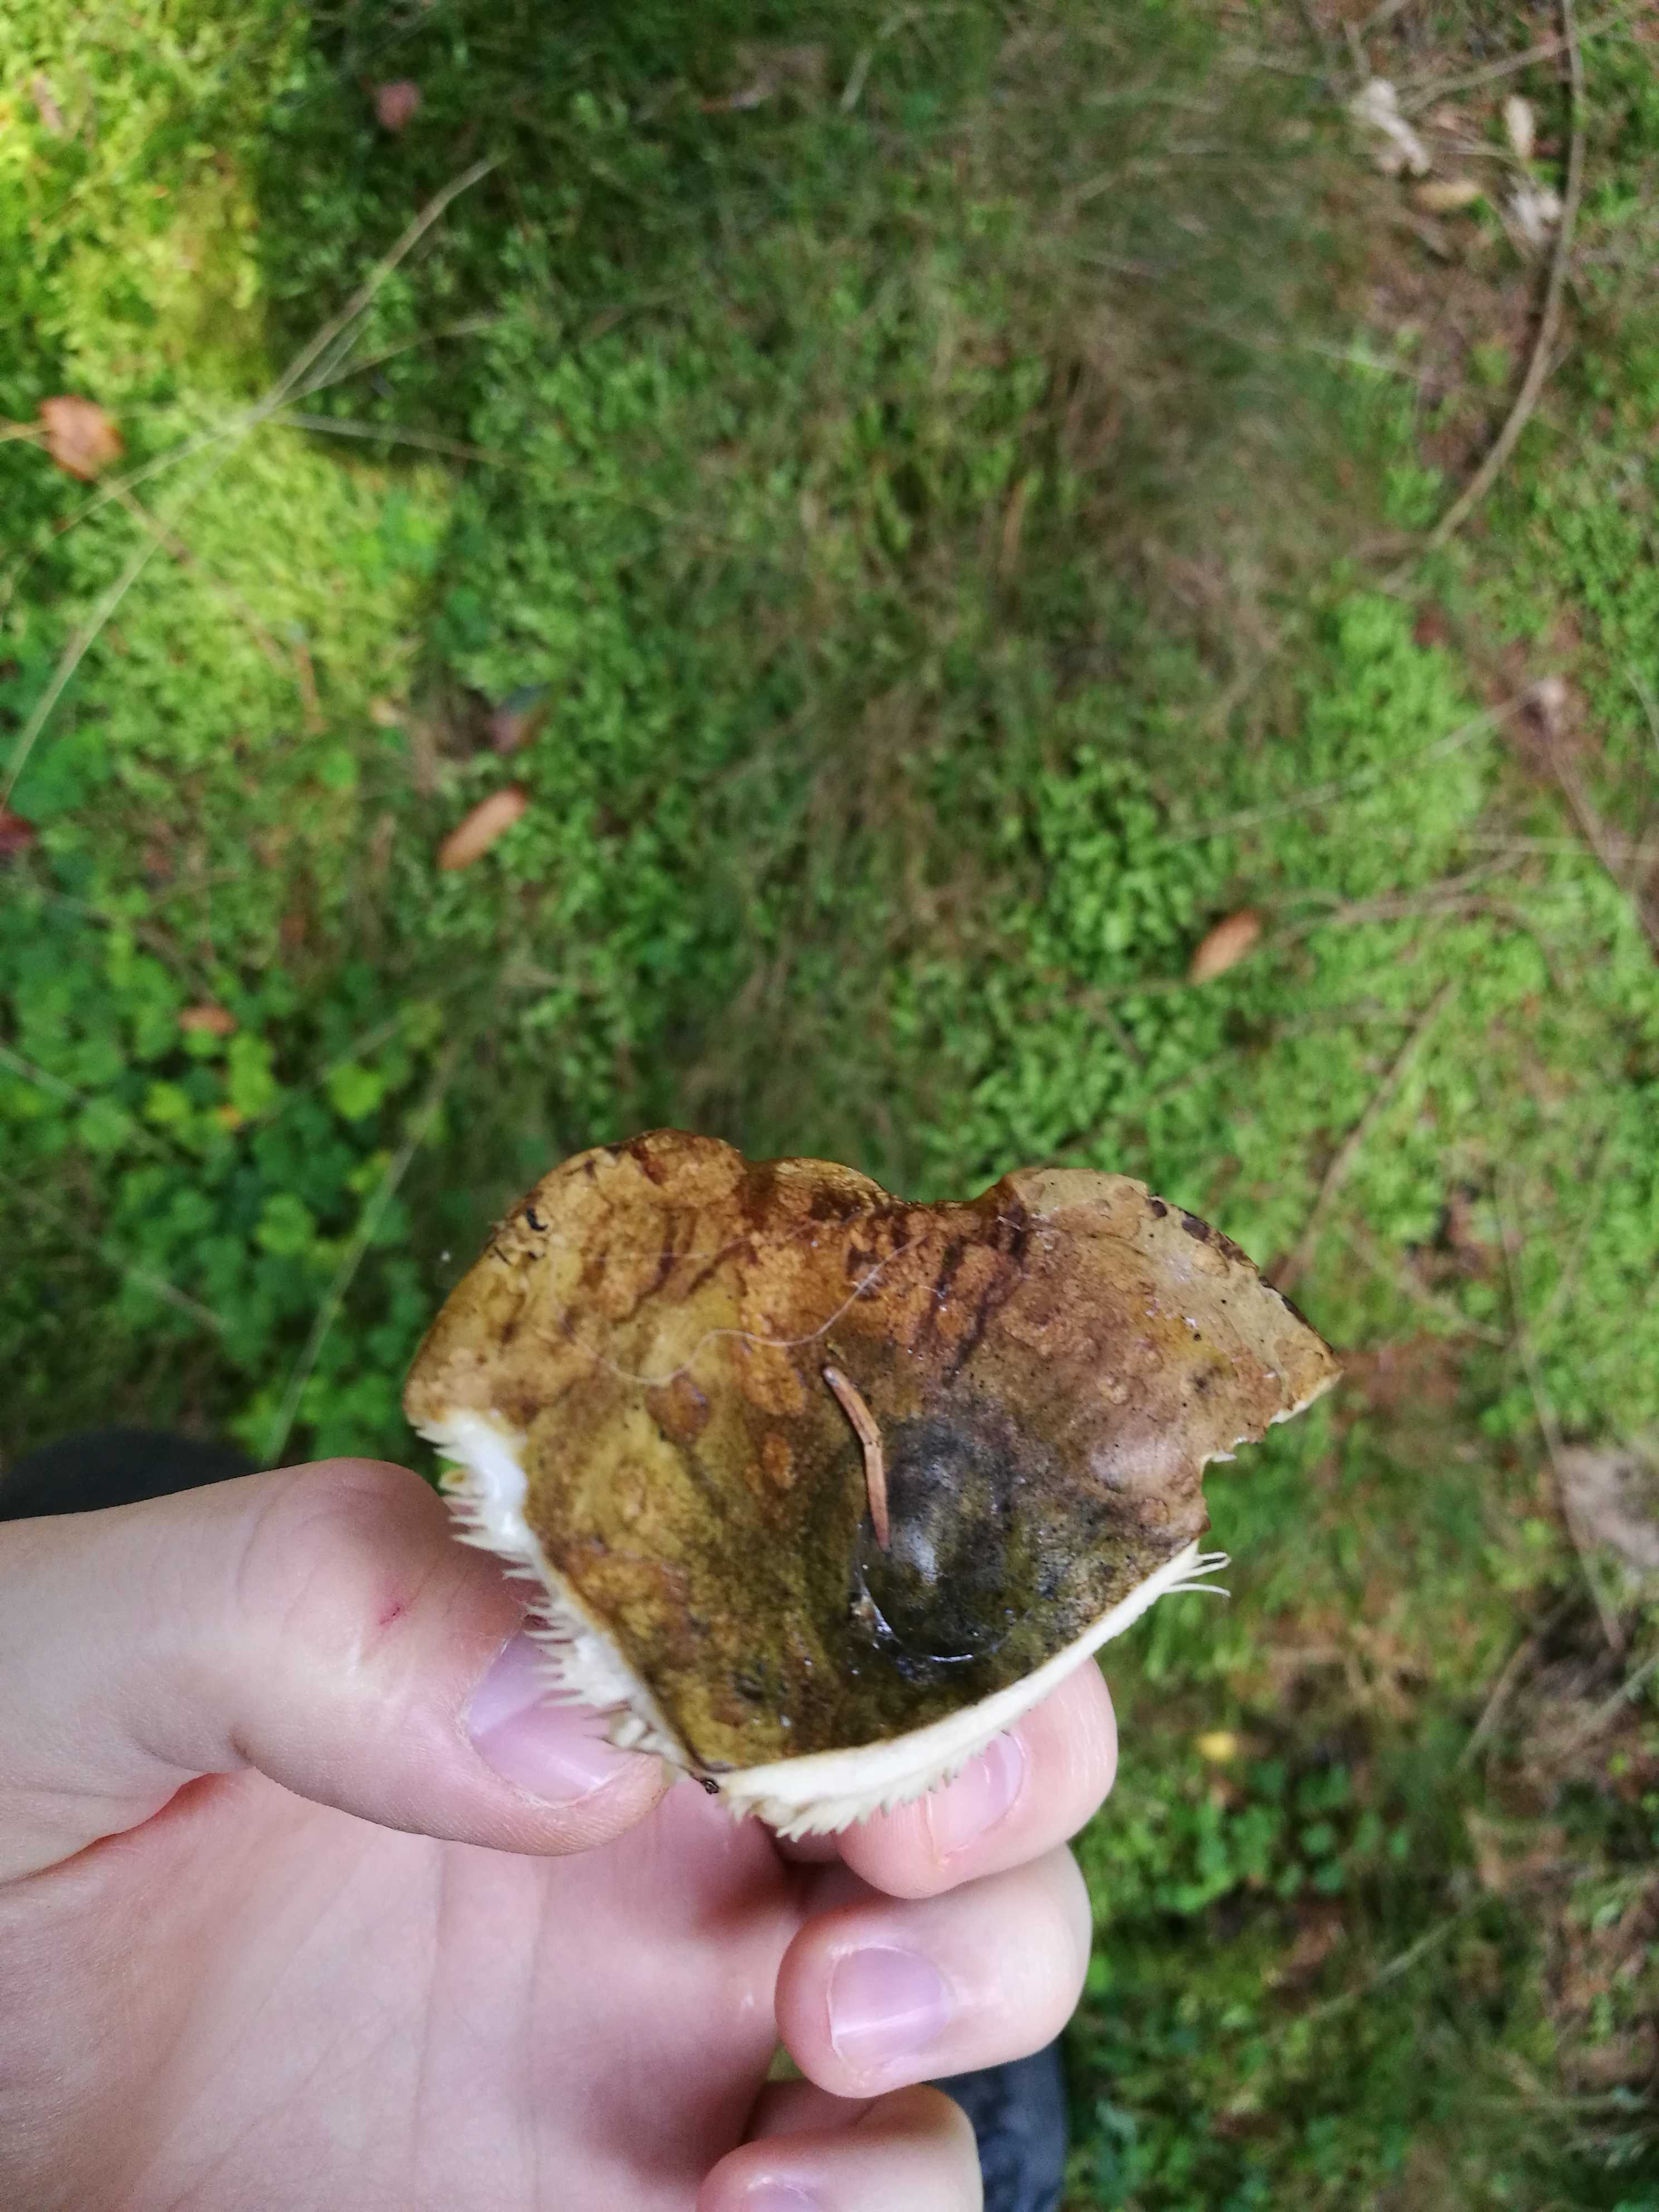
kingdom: Fungi
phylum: Basidiomycota
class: Agaricomycetes
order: Russulales
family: Russulaceae
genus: Lactarius
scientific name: Lactarius necator
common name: manddraber-mælkehat
